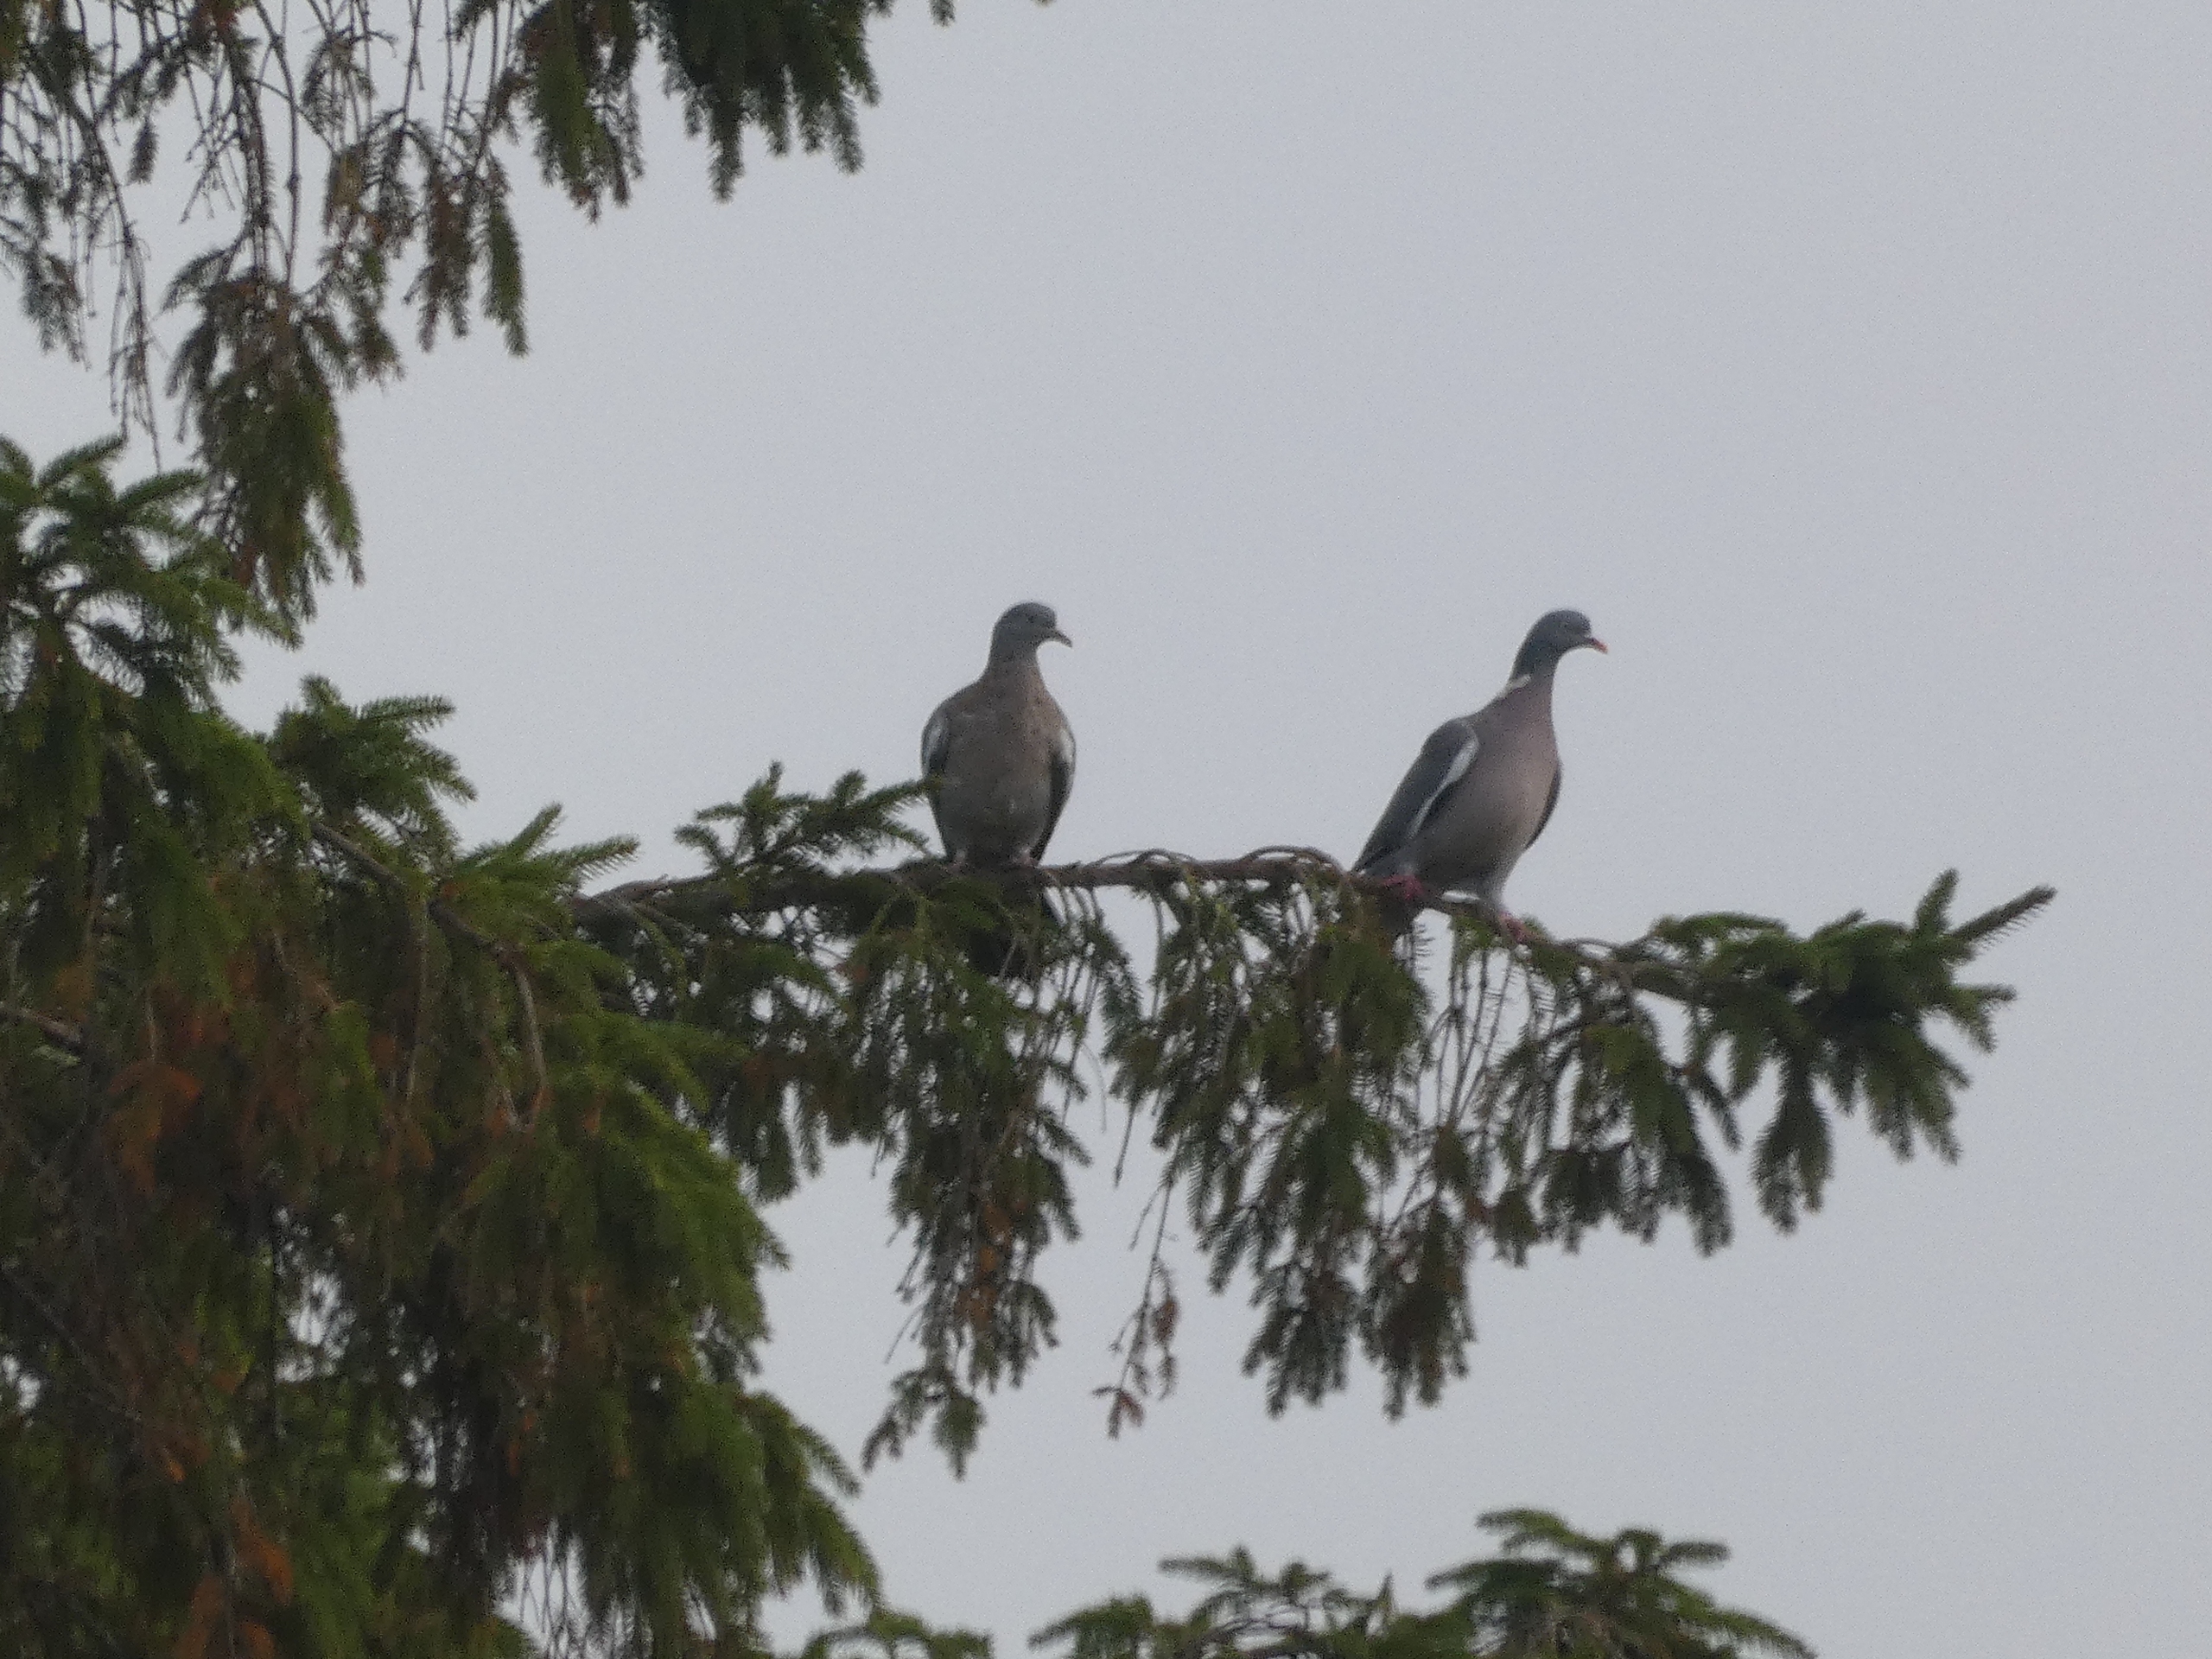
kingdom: Animalia
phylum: Chordata
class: Aves
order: Columbiformes
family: Columbidae
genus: Columba
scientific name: Columba palumbus
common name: Ringdue
